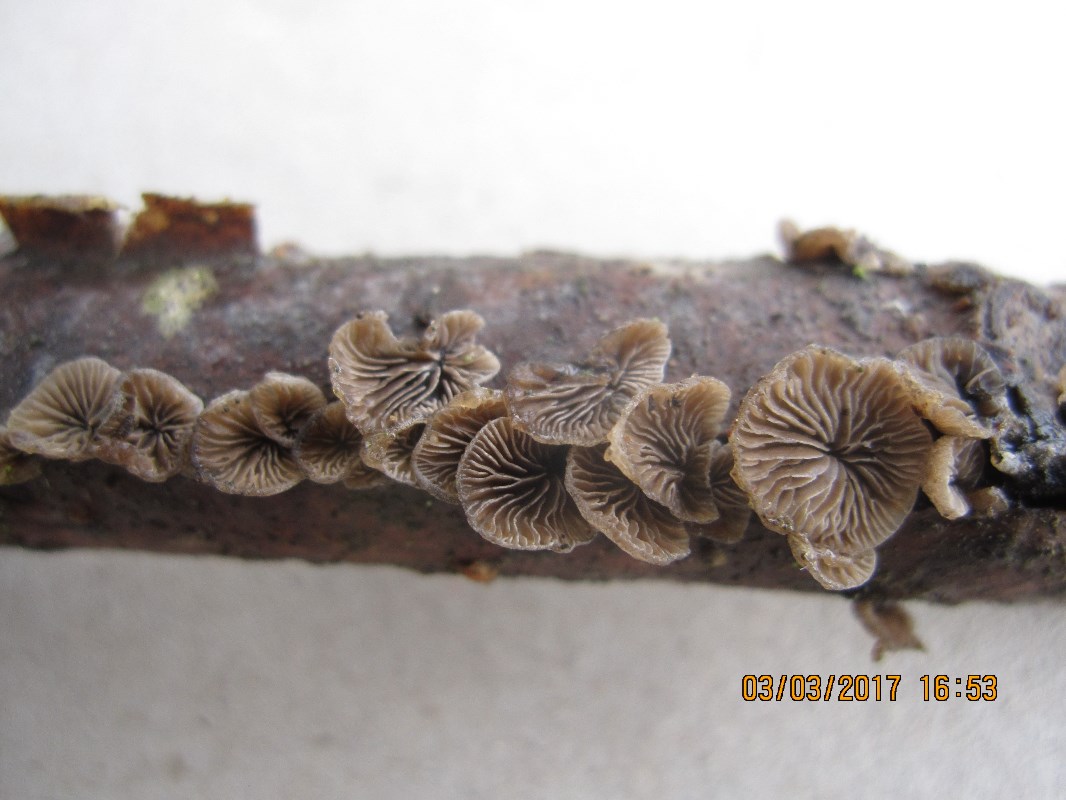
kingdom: Fungi
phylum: Basidiomycota
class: Agaricomycetes
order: Agaricales
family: Pleurotaceae
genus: Resupinatus
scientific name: Resupinatus trichotis
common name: mørkfiltet barkhat
